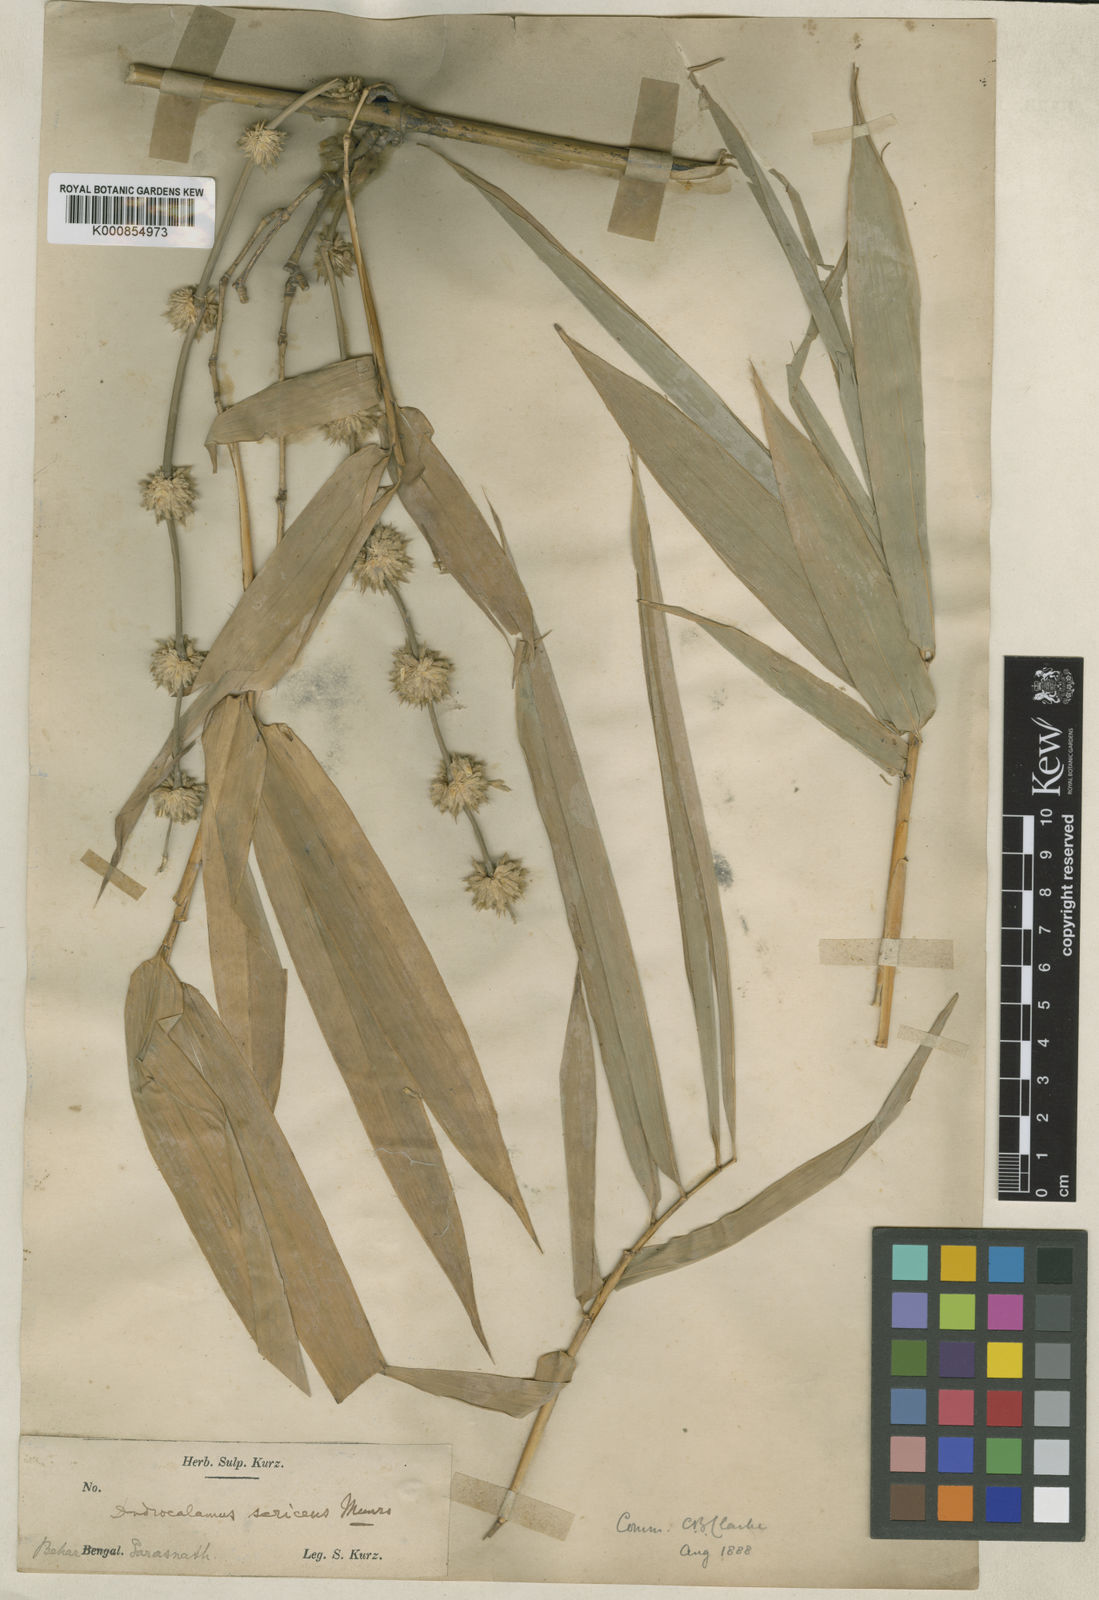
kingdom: Plantae
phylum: Tracheophyta
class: Liliopsida
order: Poales
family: Poaceae
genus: Dendrocalamus
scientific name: Dendrocalamus sericeus
